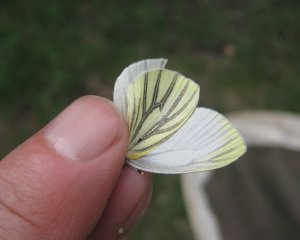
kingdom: Animalia
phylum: Arthropoda
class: Insecta
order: Lepidoptera
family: Pieridae
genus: Pieris
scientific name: Pieris oleracea
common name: Mustard White
